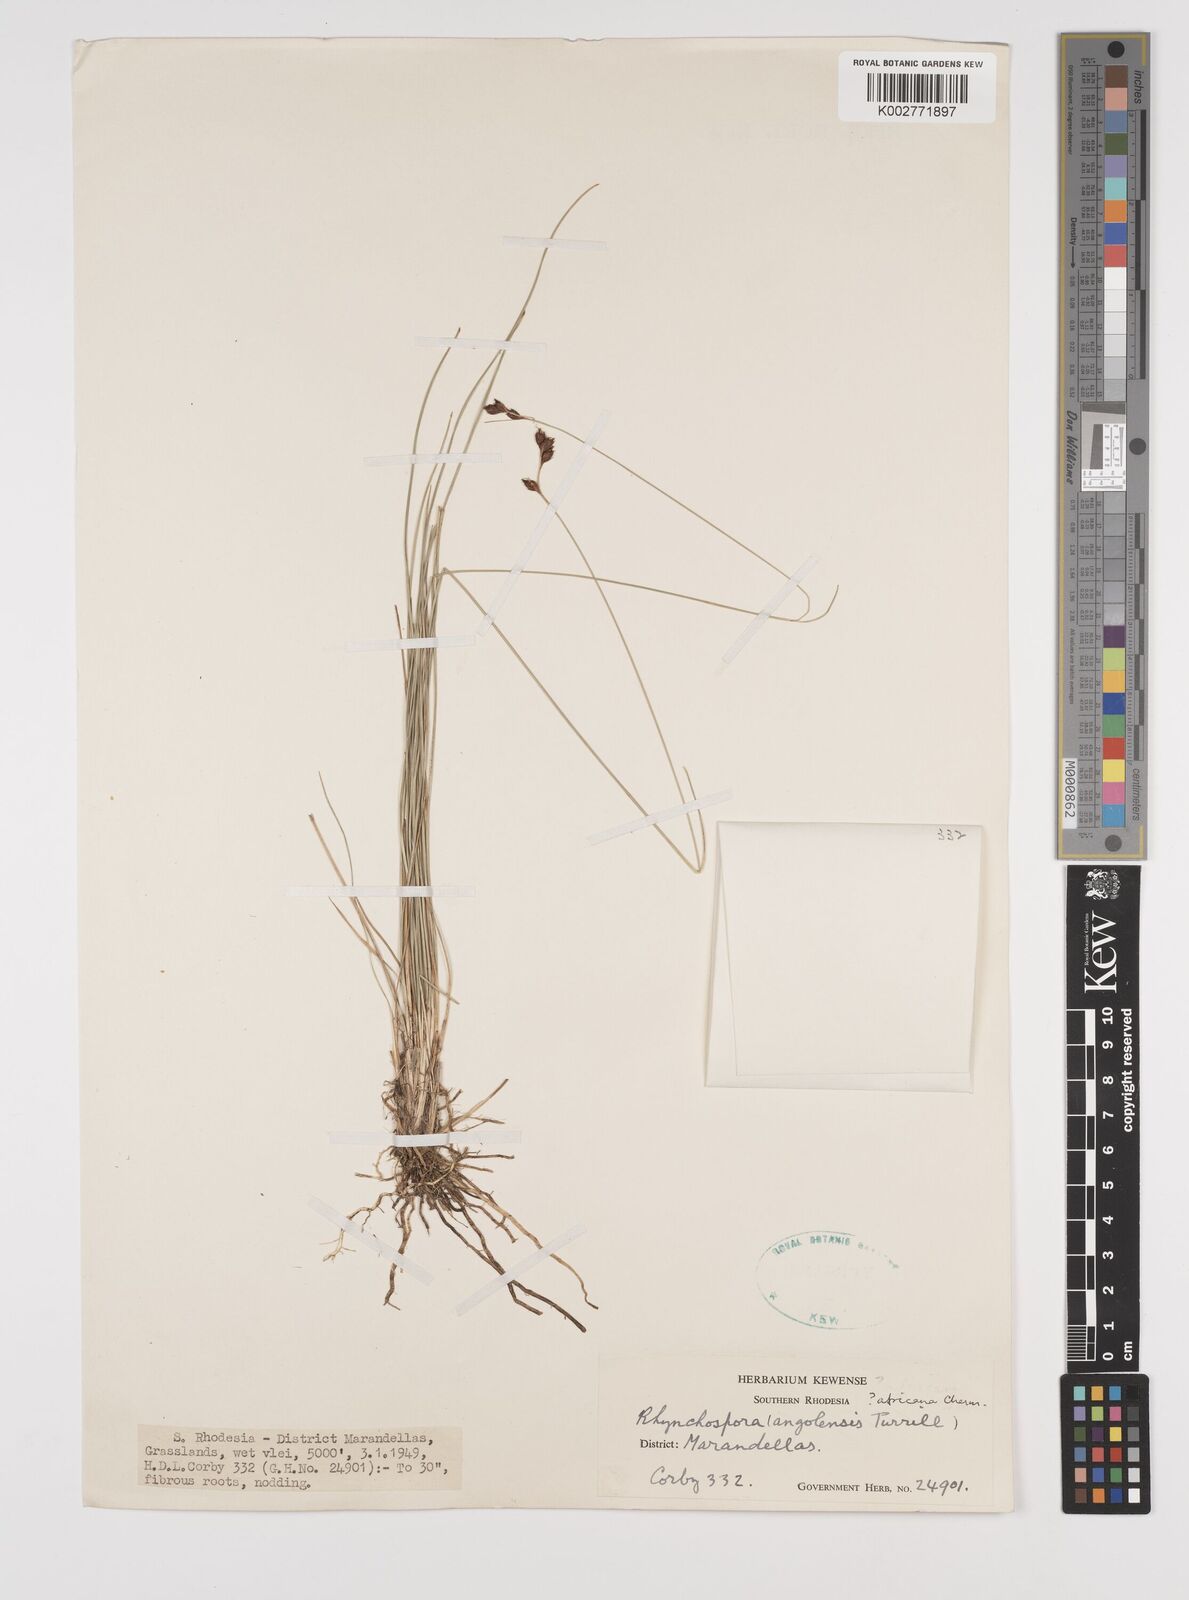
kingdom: Plantae
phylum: Tracheophyta
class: Liliopsida
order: Poales
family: Cyperaceae
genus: Rhynchospora
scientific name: Rhynchospora angolensis
